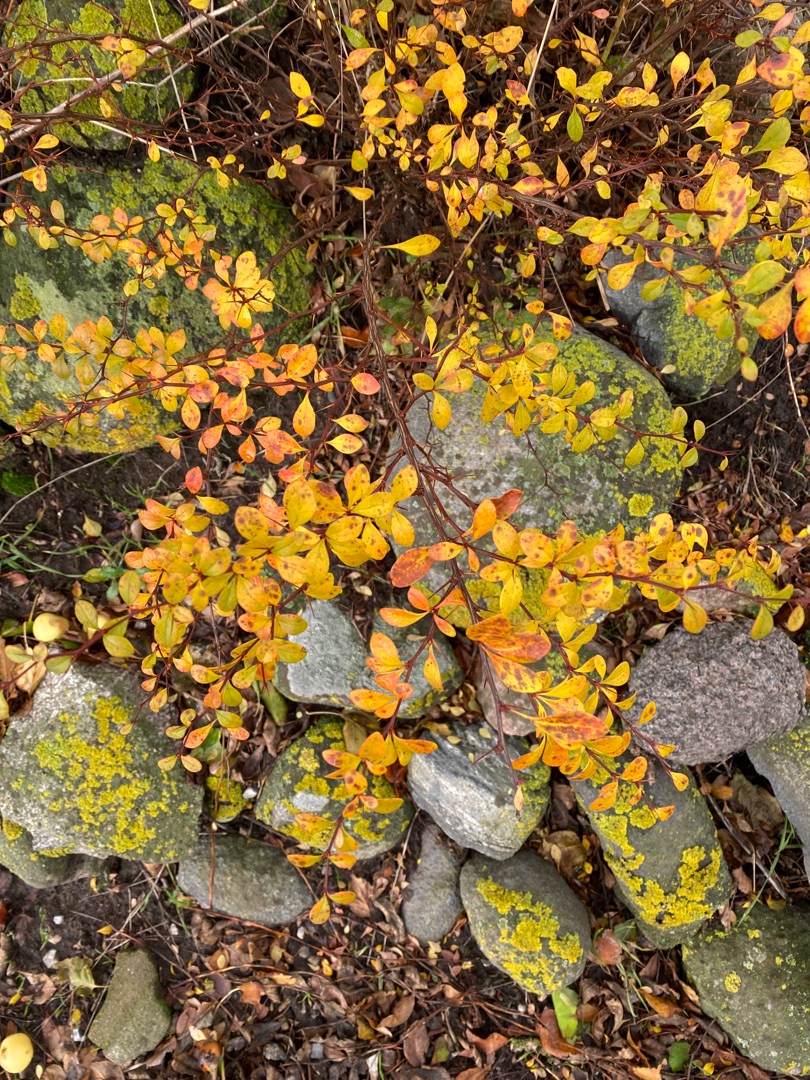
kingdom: Plantae
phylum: Tracheophyta
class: Magnoliopsida
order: Ranunculales
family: Berberidaceae
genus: Berberis
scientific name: Berberis thunbergii
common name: Hæk-berberis
